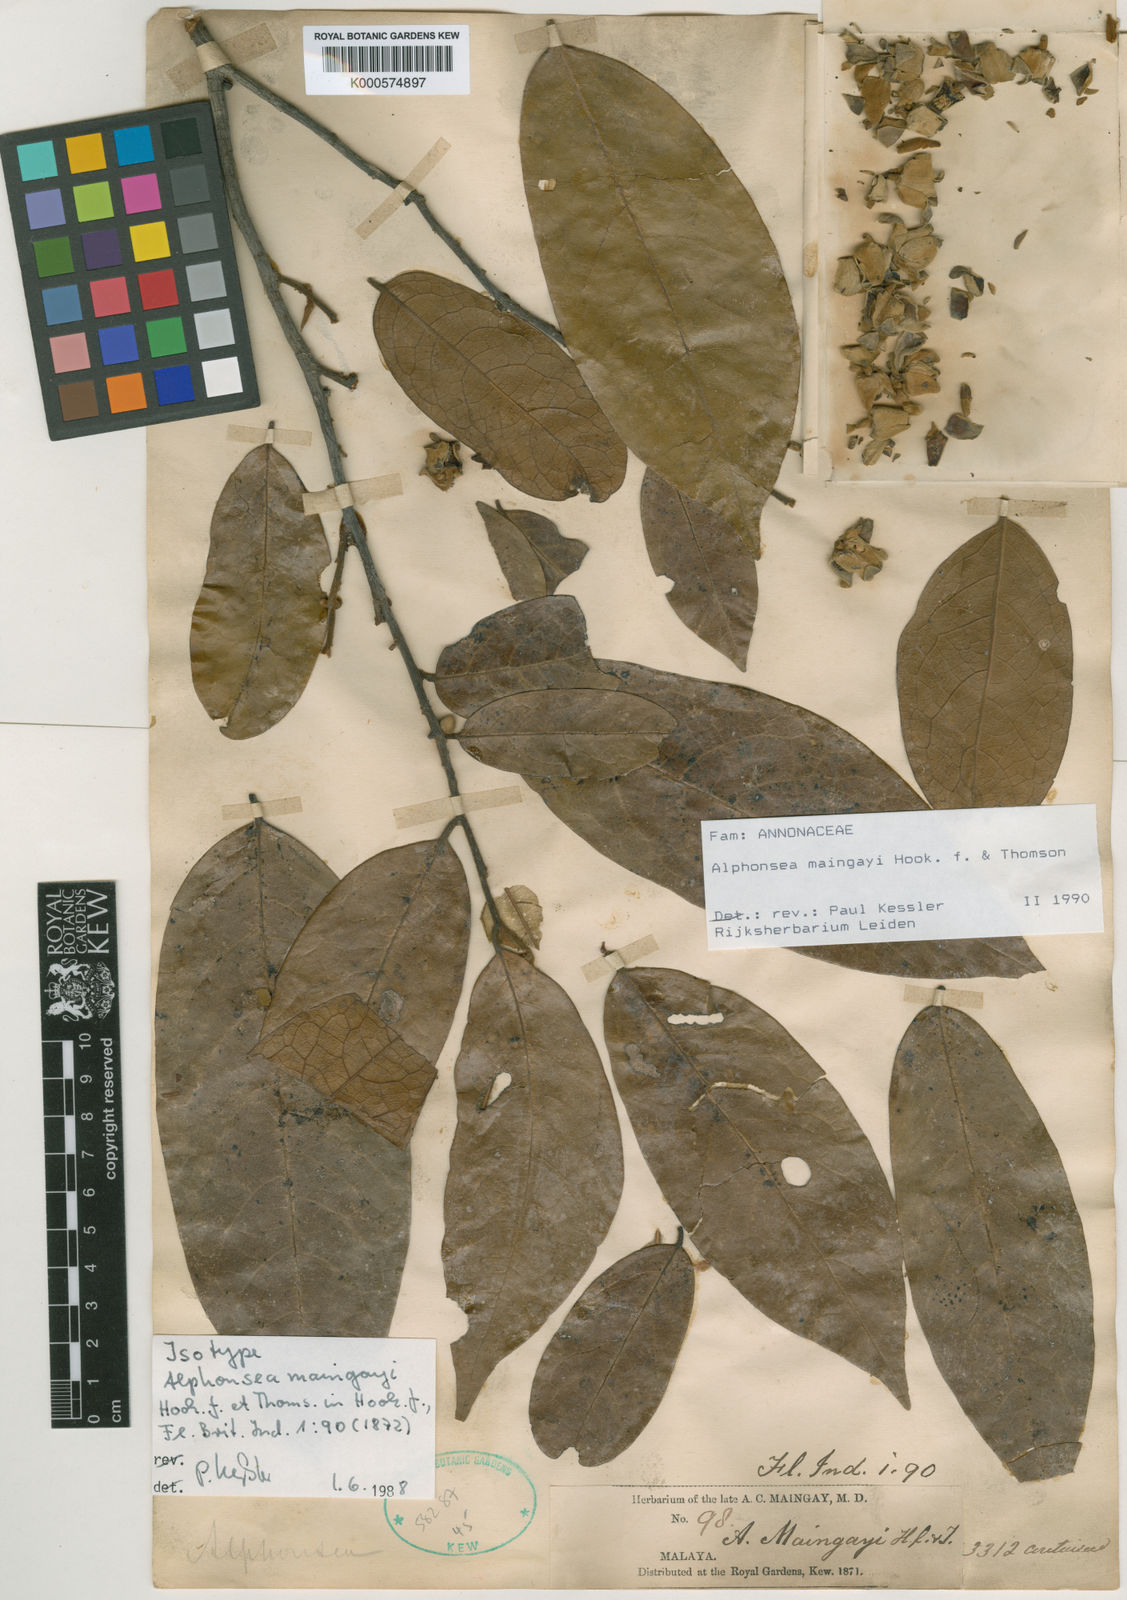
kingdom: Plantae
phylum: Tracheophyta
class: Magnoliopsida
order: Magnoliales
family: Annonaceae
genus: Alphonsea
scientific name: Alphonsea maingayi
